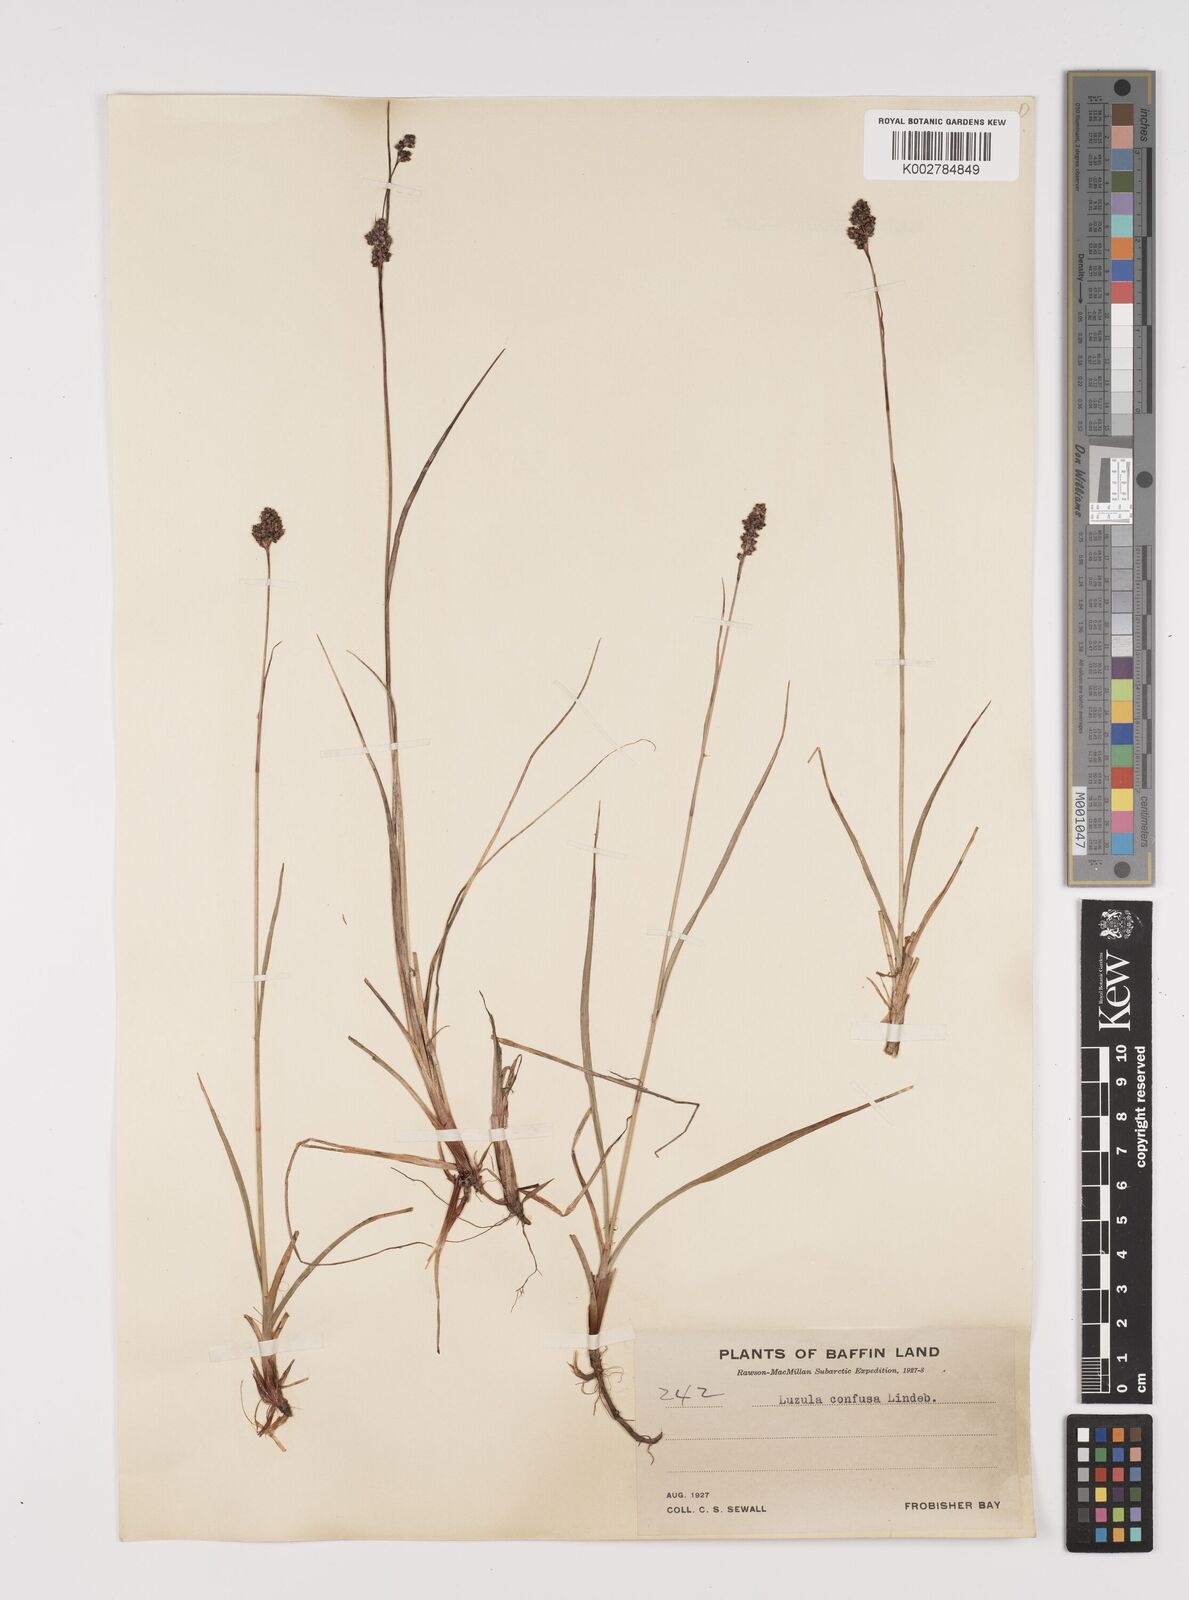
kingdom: Plantae
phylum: Tracheophyta
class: Liliopsida
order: Poales
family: Juncaceae
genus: Luzula
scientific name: Luzula confusa
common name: Northern wood rush
